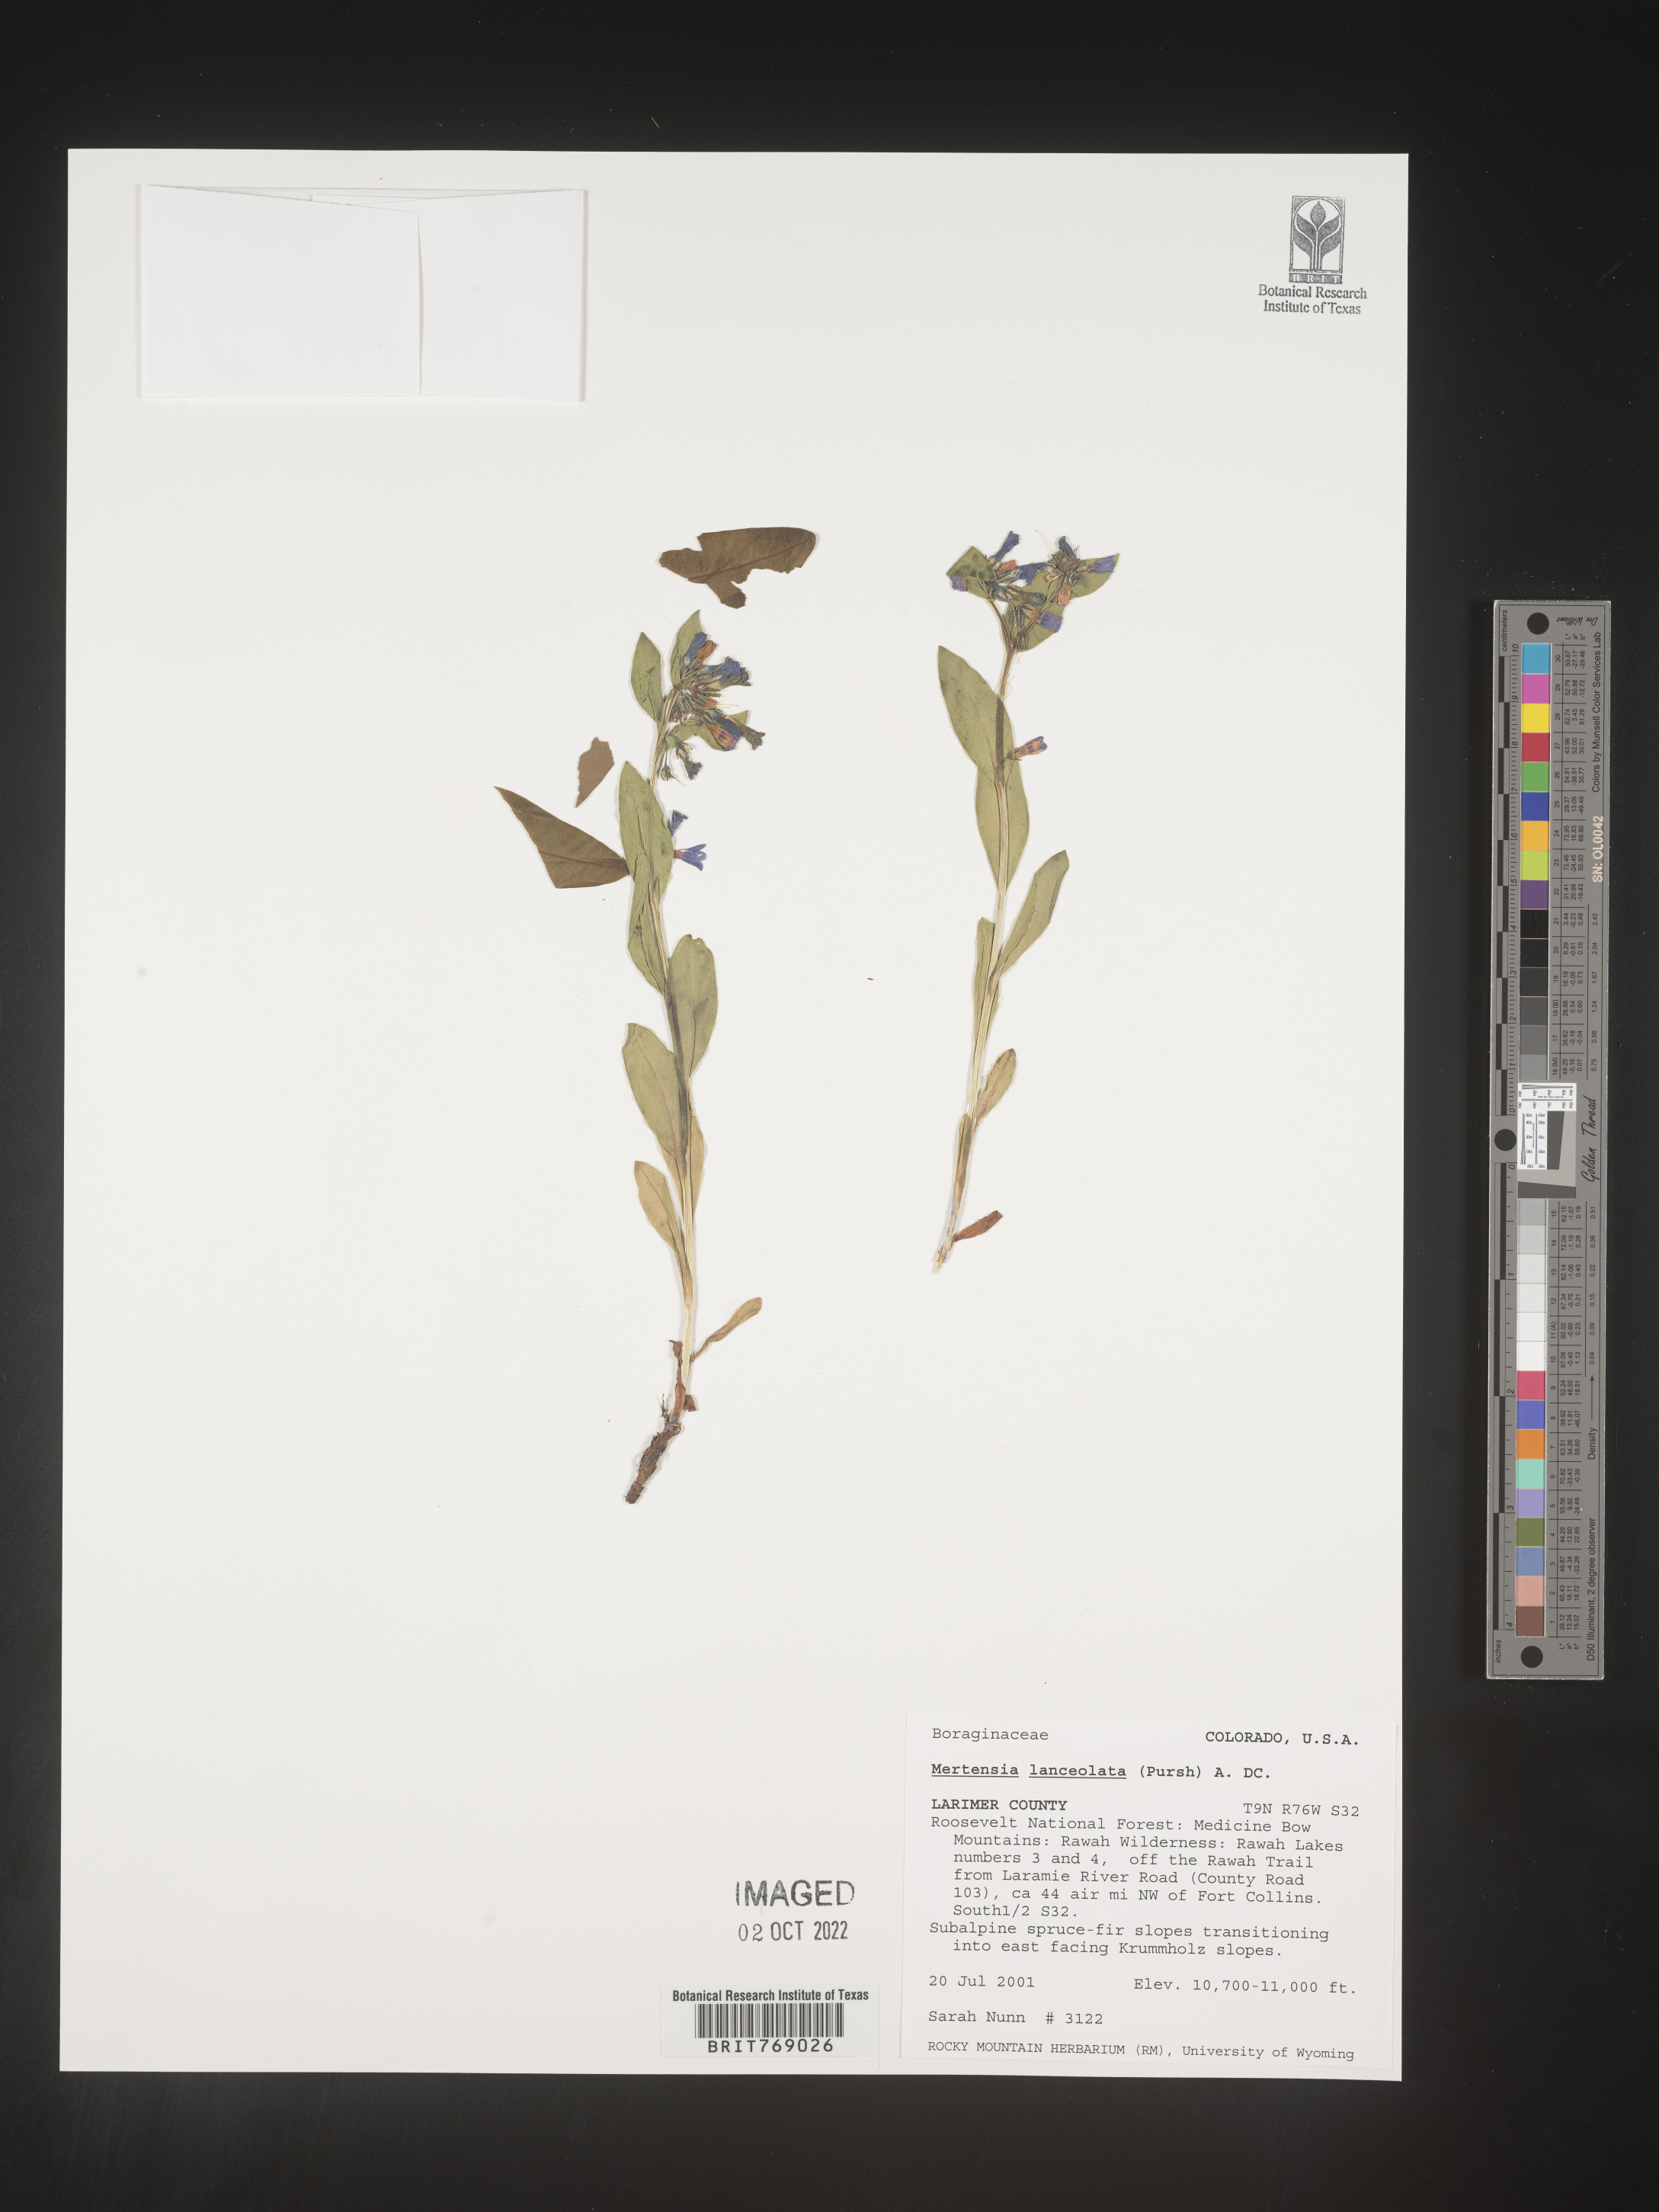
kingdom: Plantae
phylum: Tracheophyta
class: Magnoliopsida
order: Boraginales
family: Boraginaceae
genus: Mertensia
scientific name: Mertensia
